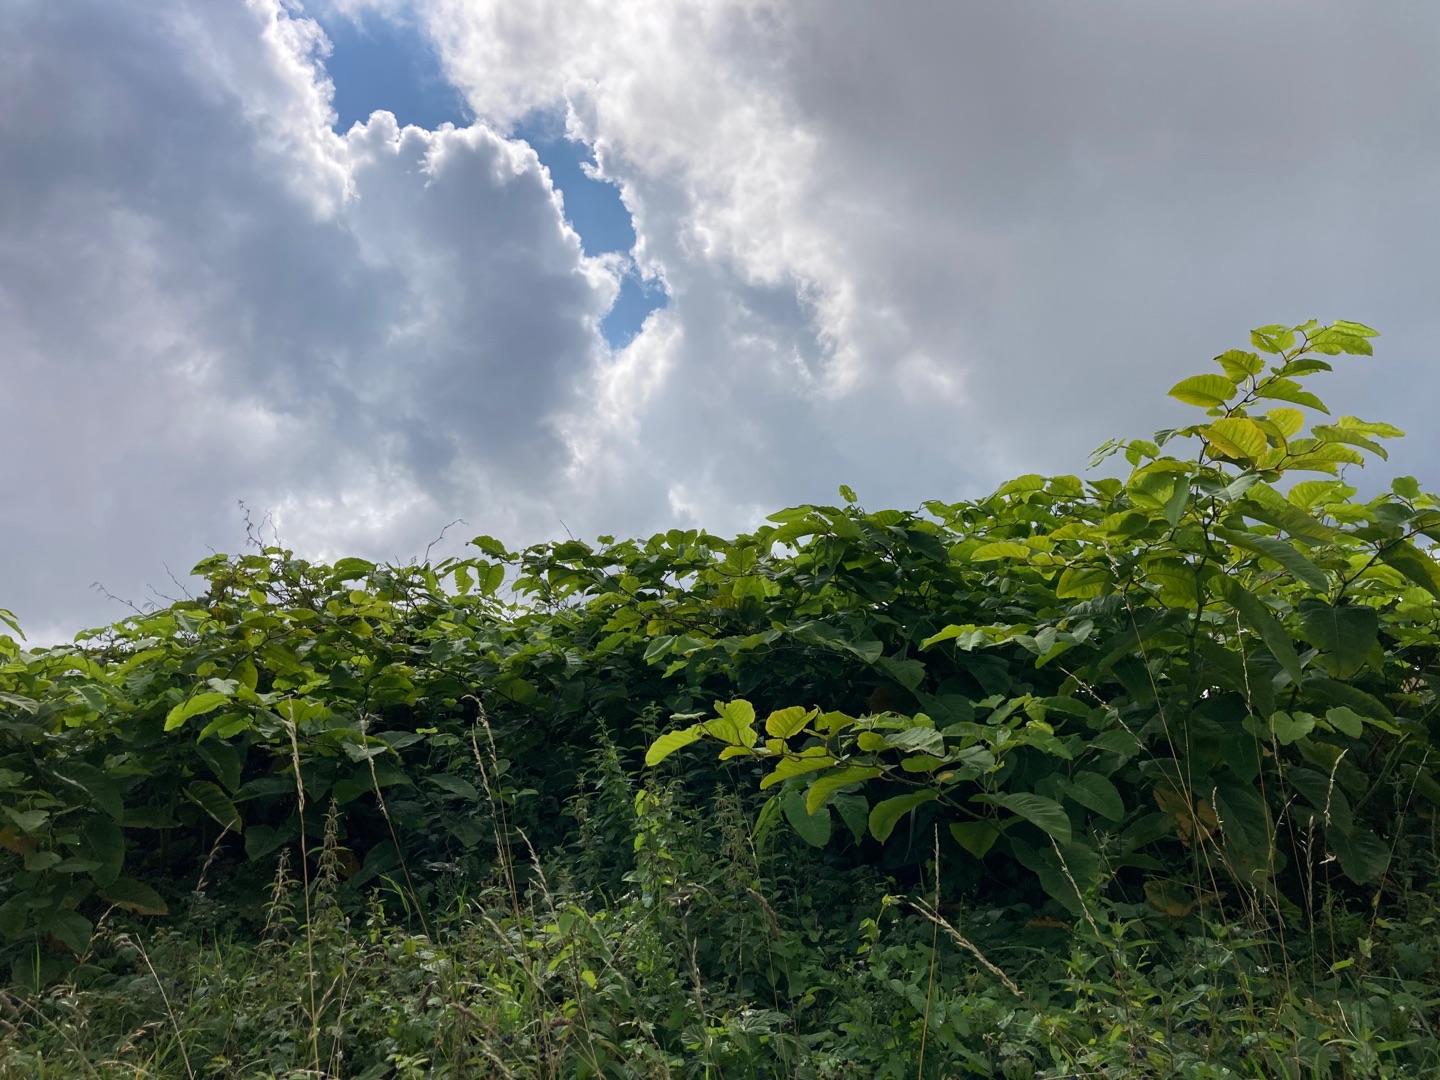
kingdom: Plantae
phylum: Tracheophyta
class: Magnoliopsida
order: Caryophyllales
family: Polygonaceae
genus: Reynoutria
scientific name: Reynoutria sachalinensis
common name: Kæmpe-pileurt
